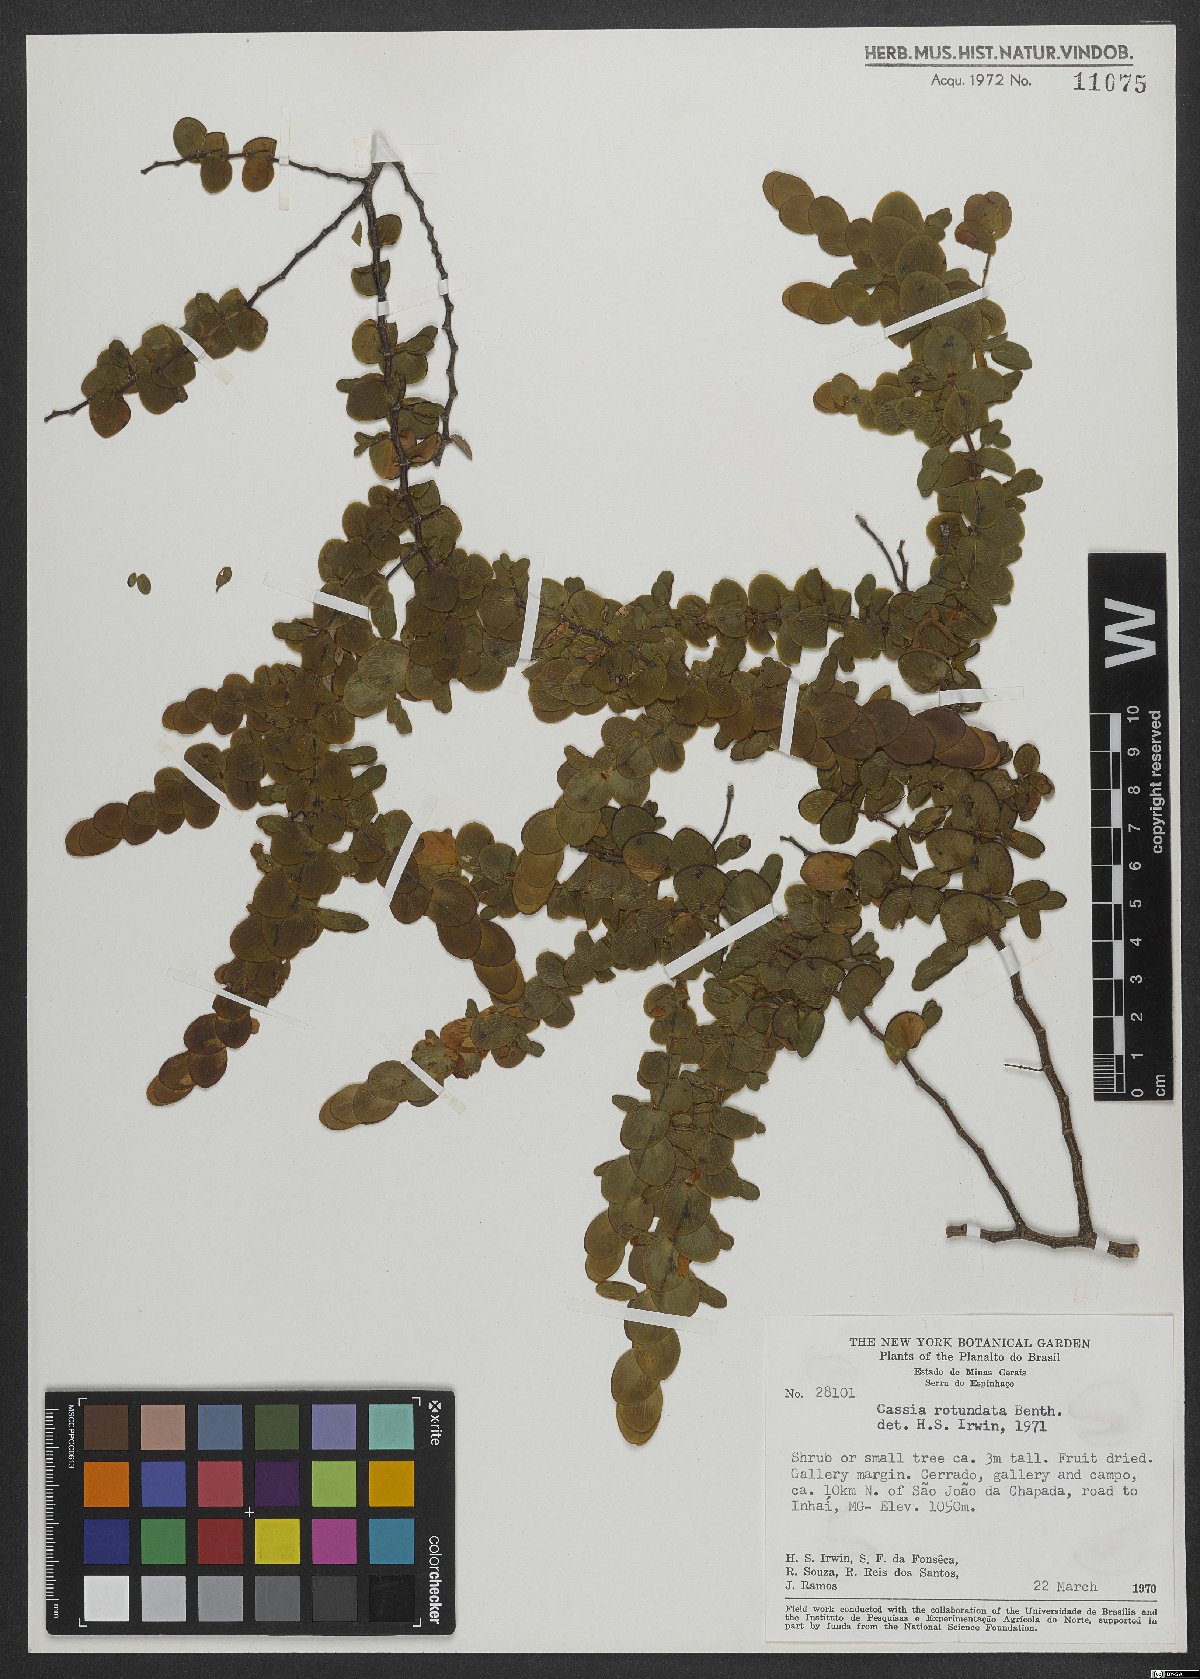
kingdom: Plantae
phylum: Tracheophyta
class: Magnoliopsida
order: Fabales
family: Fabaceae
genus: Chamaecrista
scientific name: Chamaecrista rotundata
